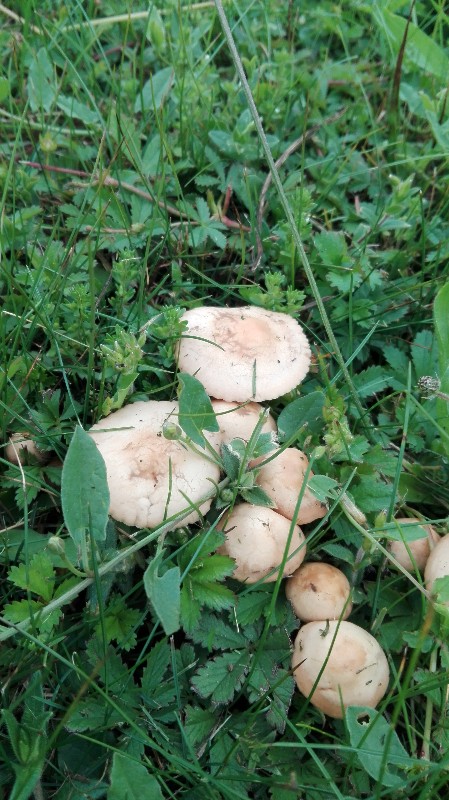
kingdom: Fungi
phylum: Basidiomycota
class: Agaricomycetes
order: Agaricales
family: Marasmiaceae
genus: Marasmius
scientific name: Marasmius oreades
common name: elledans-bruskhat
